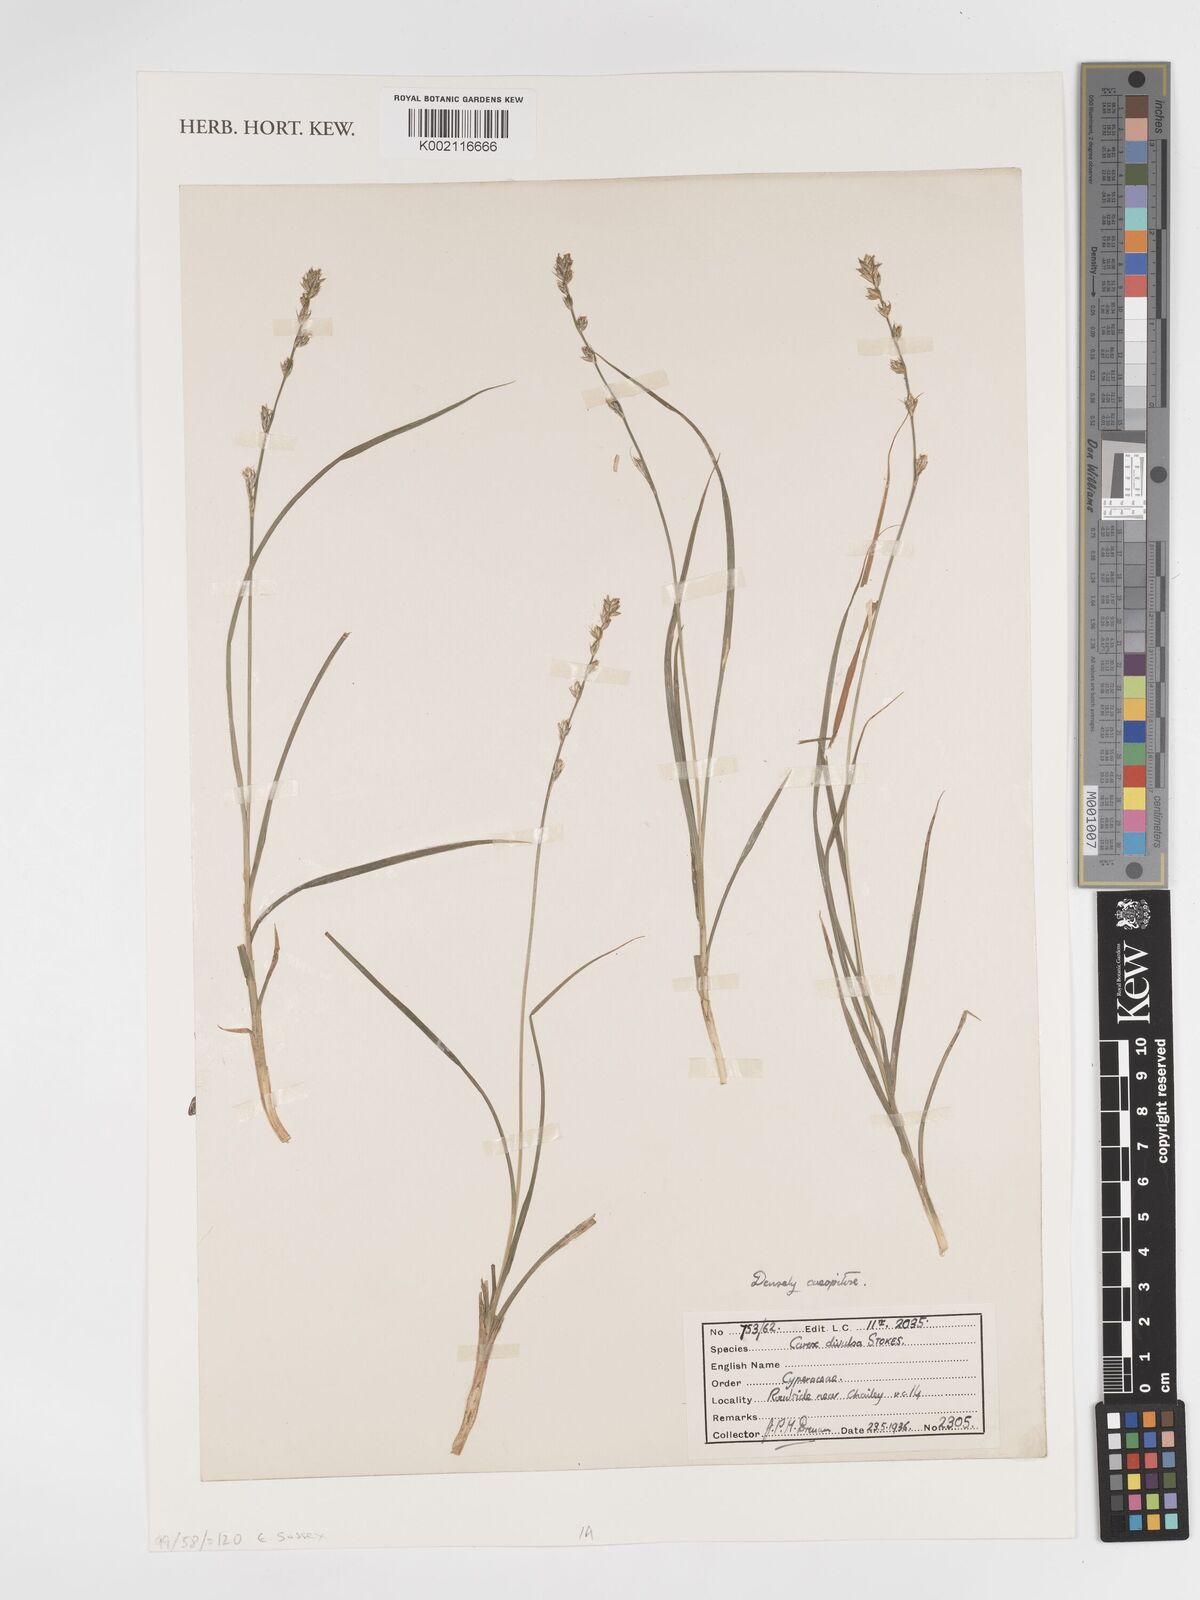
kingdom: Plantae
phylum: Tracheophyta
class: Liliopsida
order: Poales
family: Cyperaceae
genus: Carex
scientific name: Carex divulsa
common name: Grassland sedge
